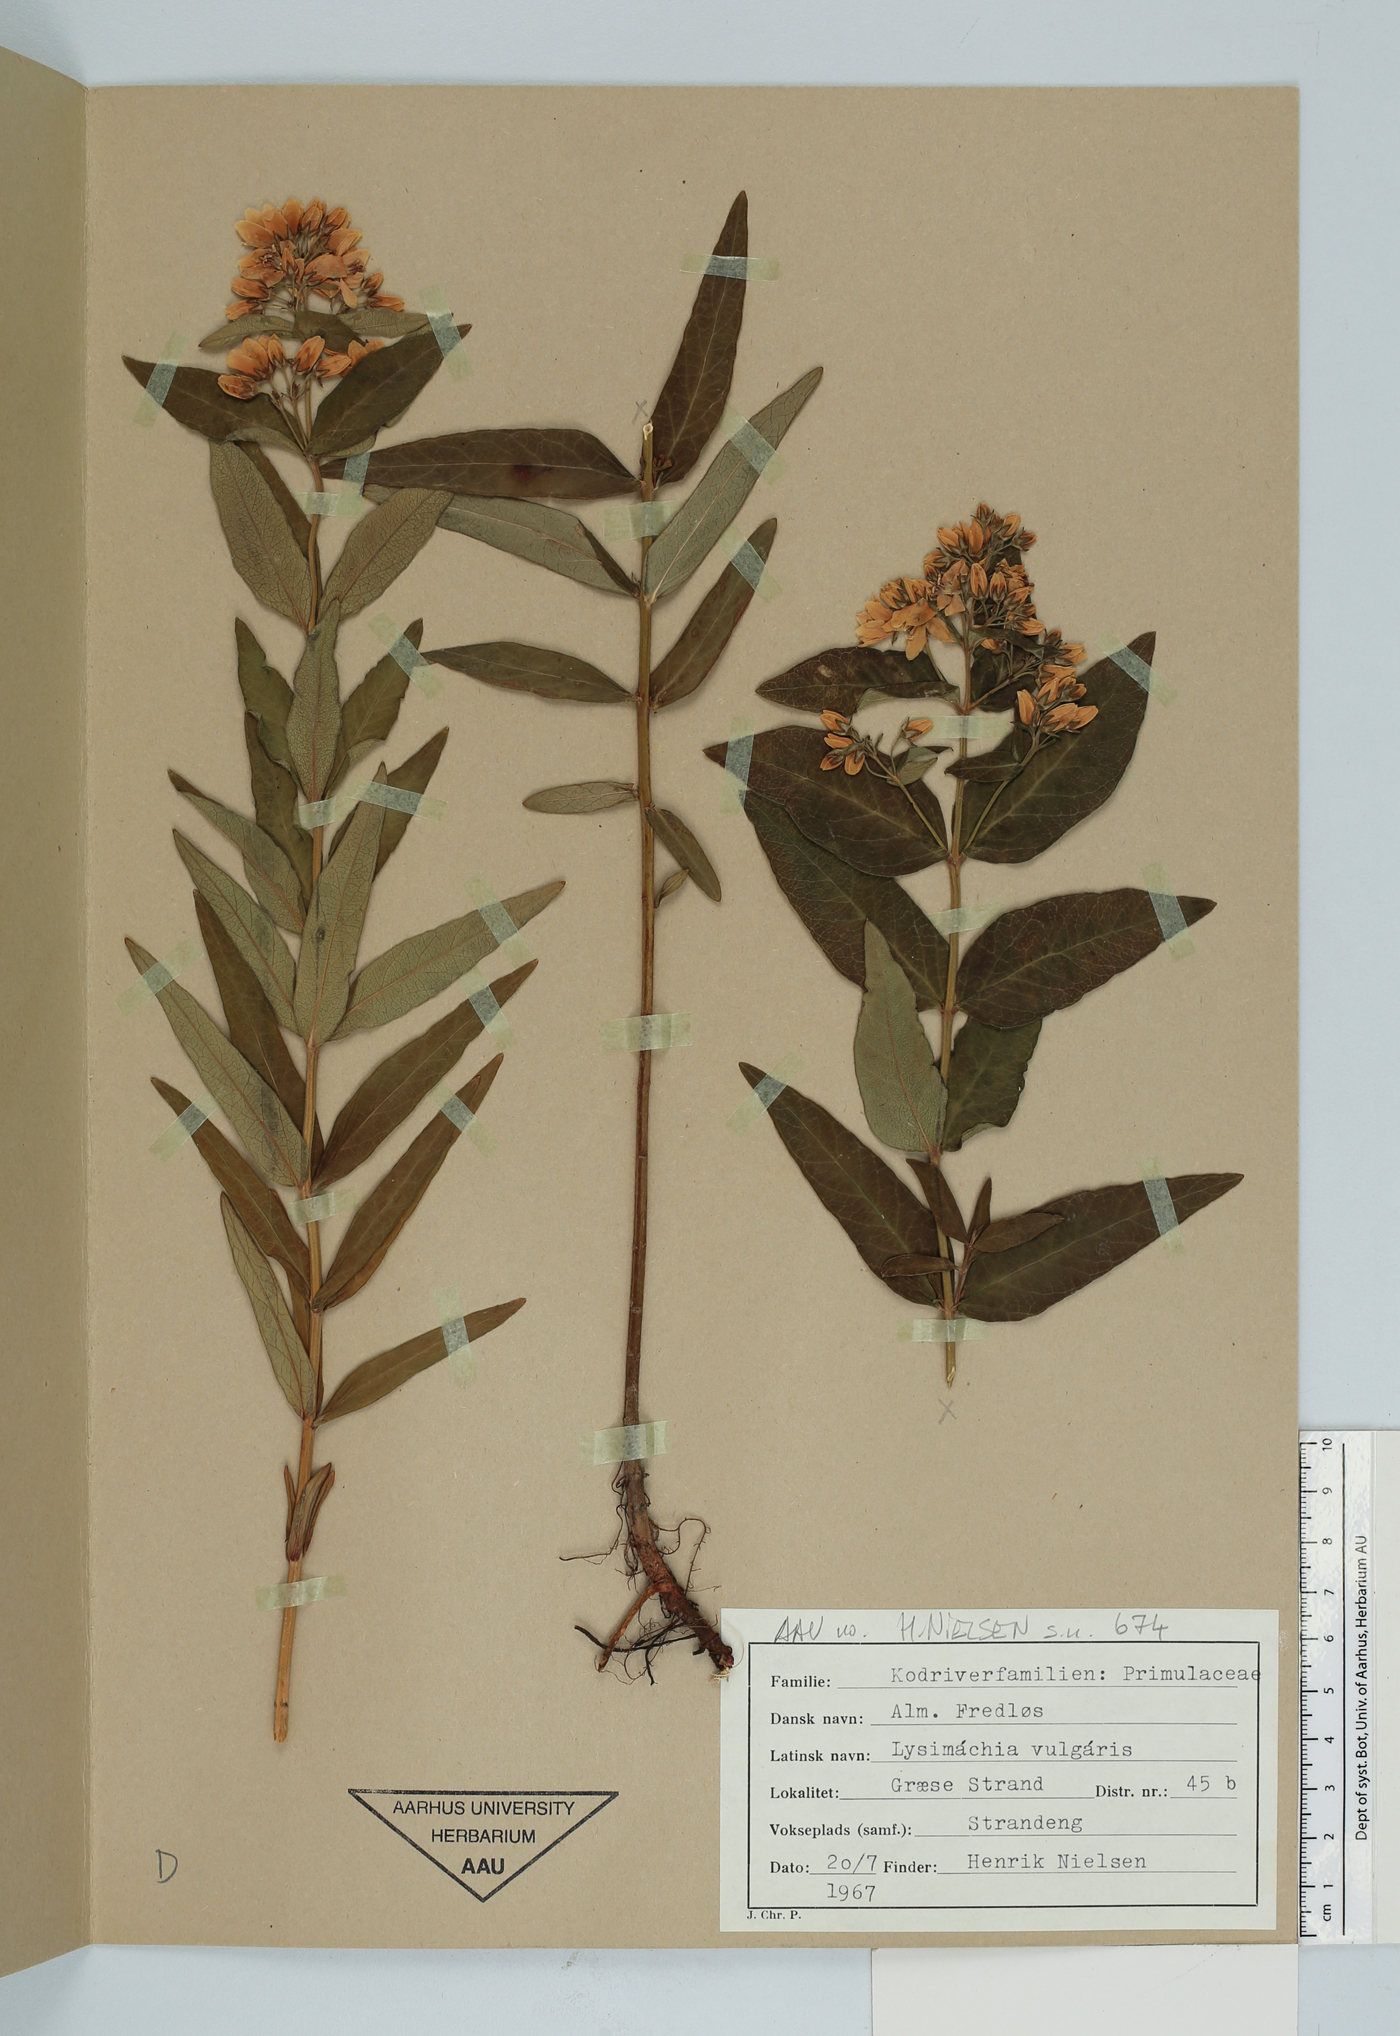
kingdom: Plantae
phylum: Tracheophyta
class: Magnoliopsida
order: Ericales
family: Primulaceae
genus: Lysimachia
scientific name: Lysimachia vulgaris
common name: Yellow loosestrife
